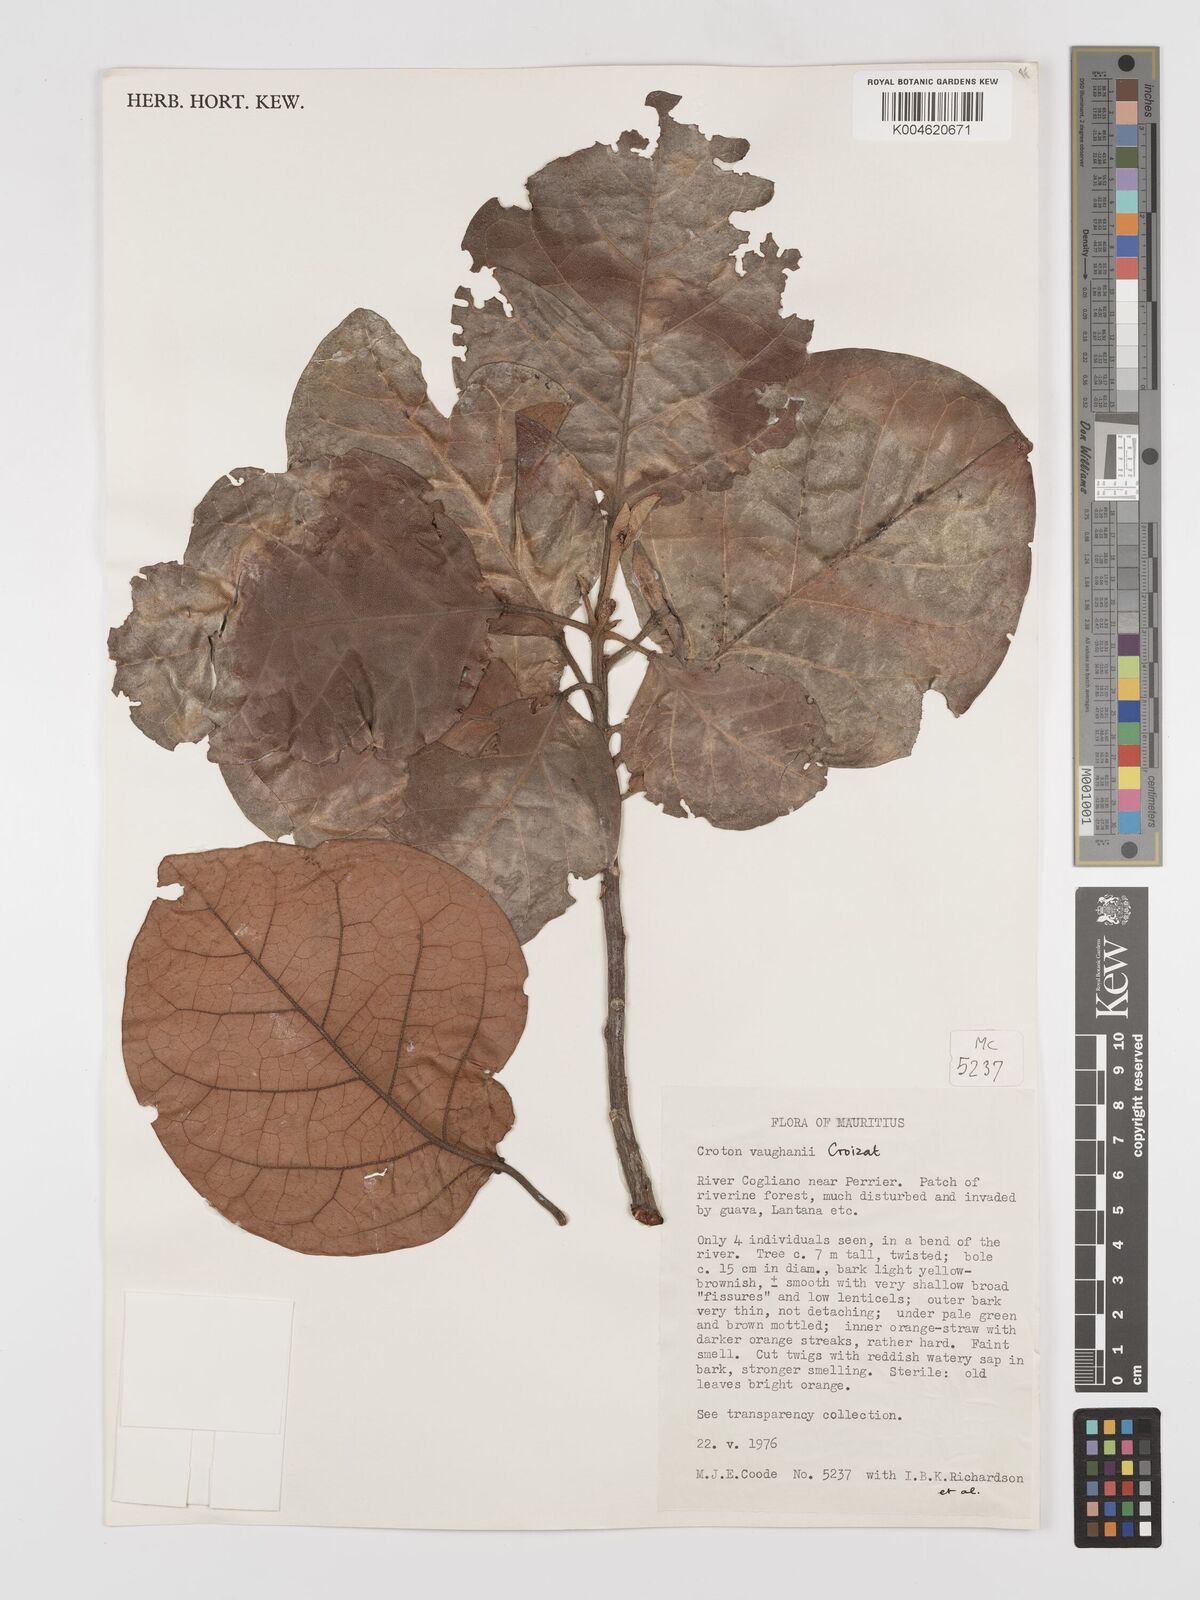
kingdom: Plantae
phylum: Tracheophyta
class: Magnoliopsida
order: Malpighiales
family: Euphorbiaceae
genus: Croton
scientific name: Croton vaughanii
